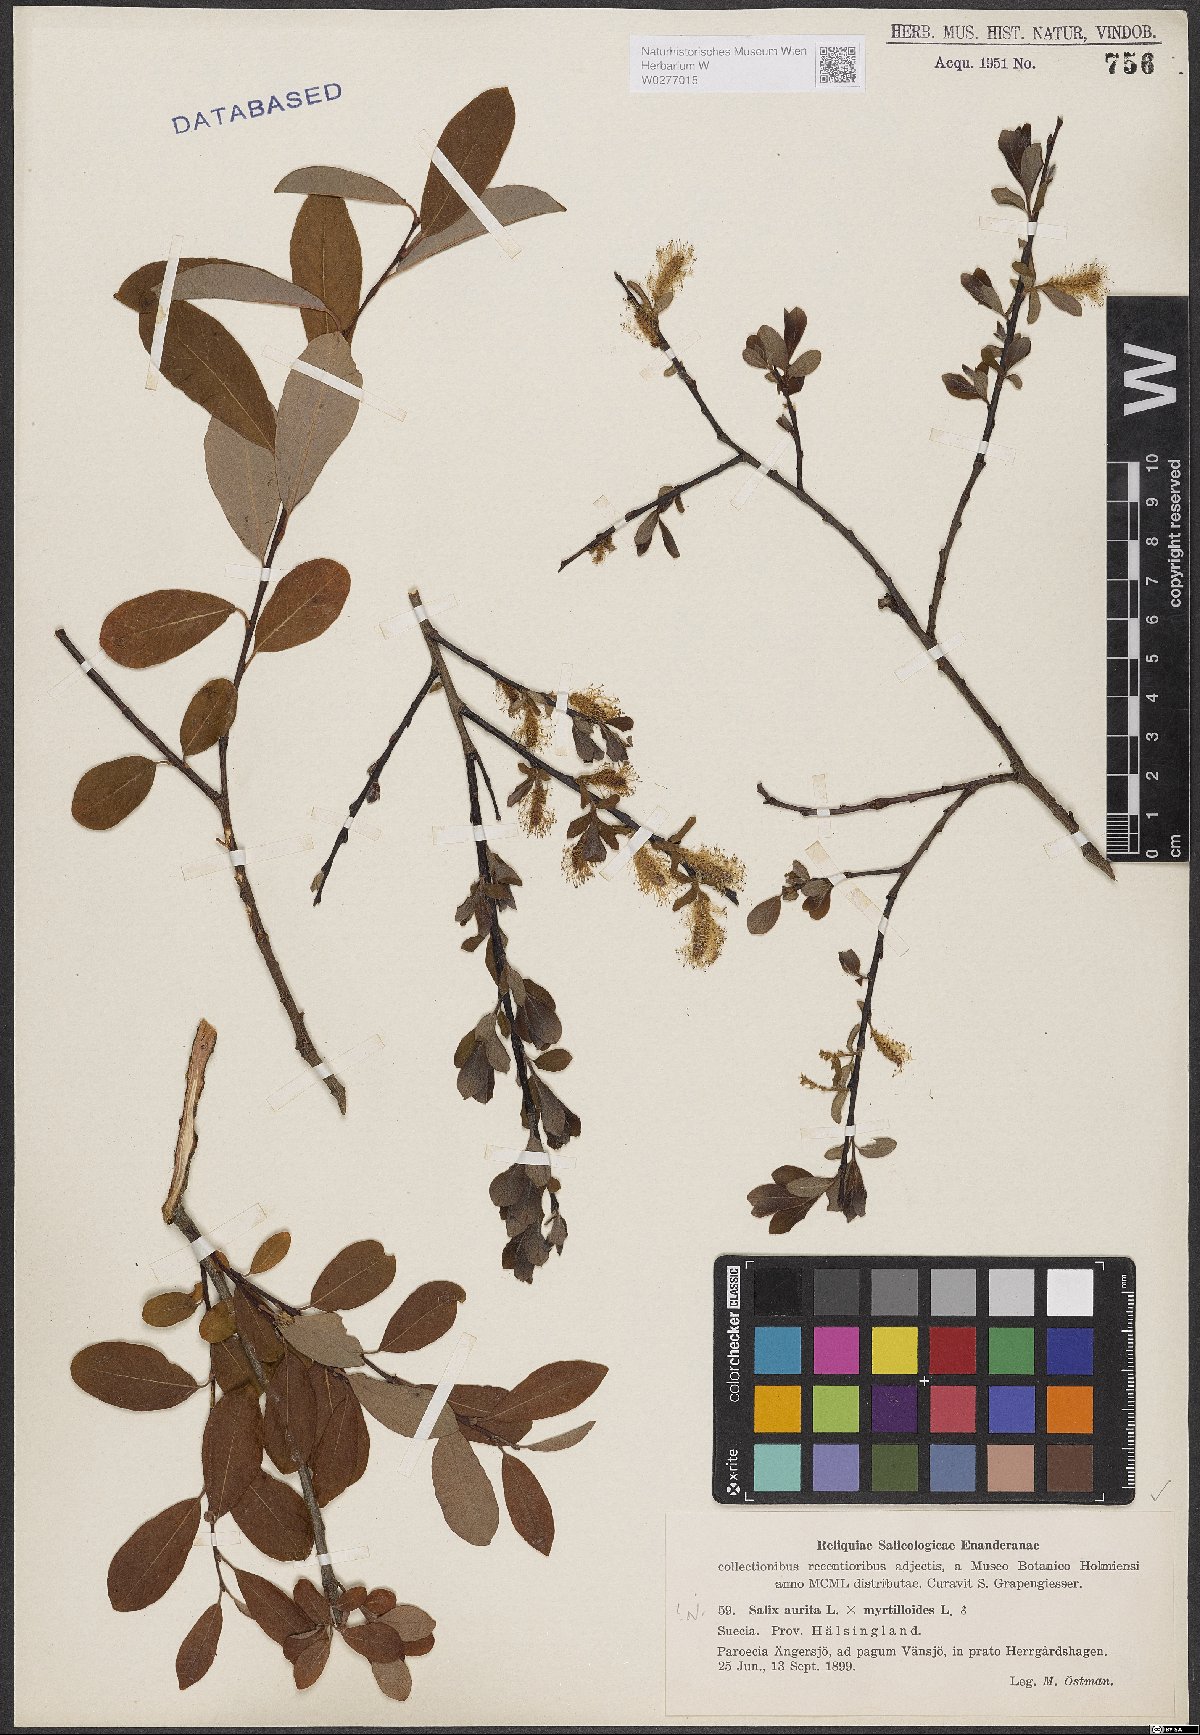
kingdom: Plantae
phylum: Tracheophyta
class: Magnoliopsida
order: Malpighiales
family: Salicaceae
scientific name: Salicaceae
